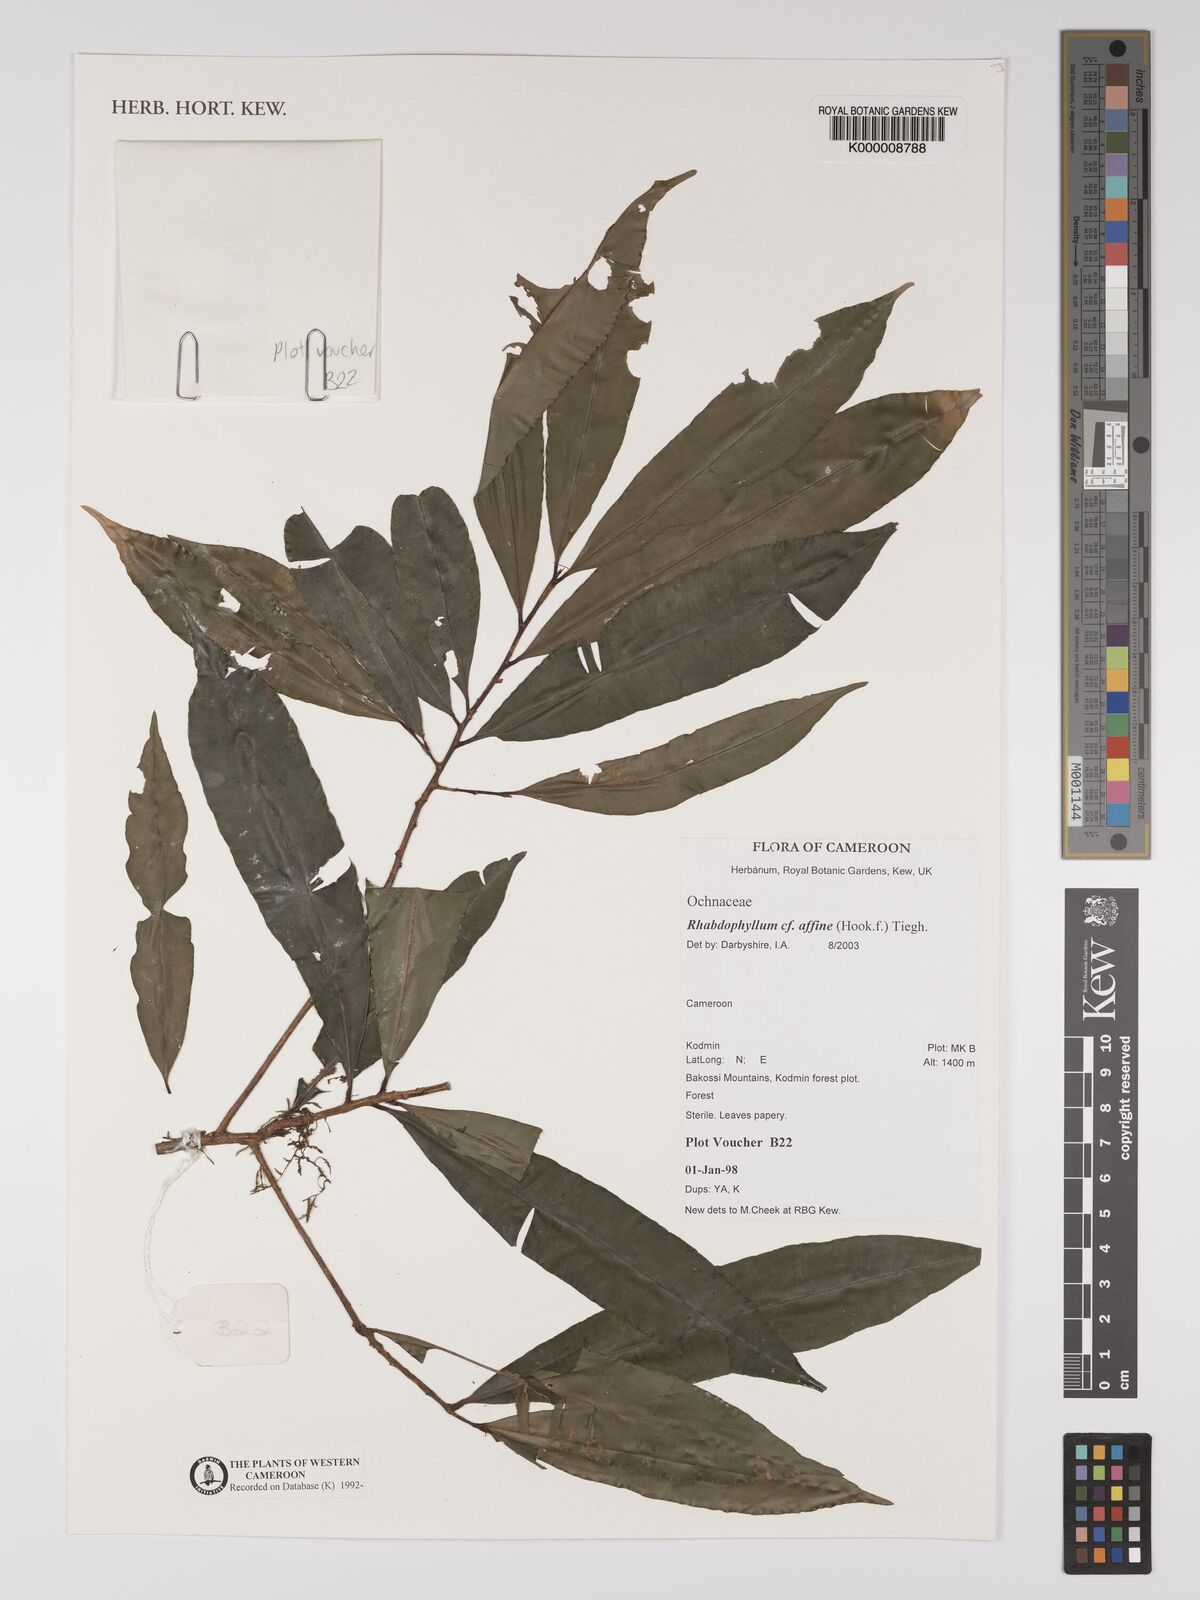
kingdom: Plantae
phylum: Tracheophyta
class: Magnoliopsida
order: Malpighiales
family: Ochnaceae
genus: Rhabdophyllum
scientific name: Rhabdophyllum affine
